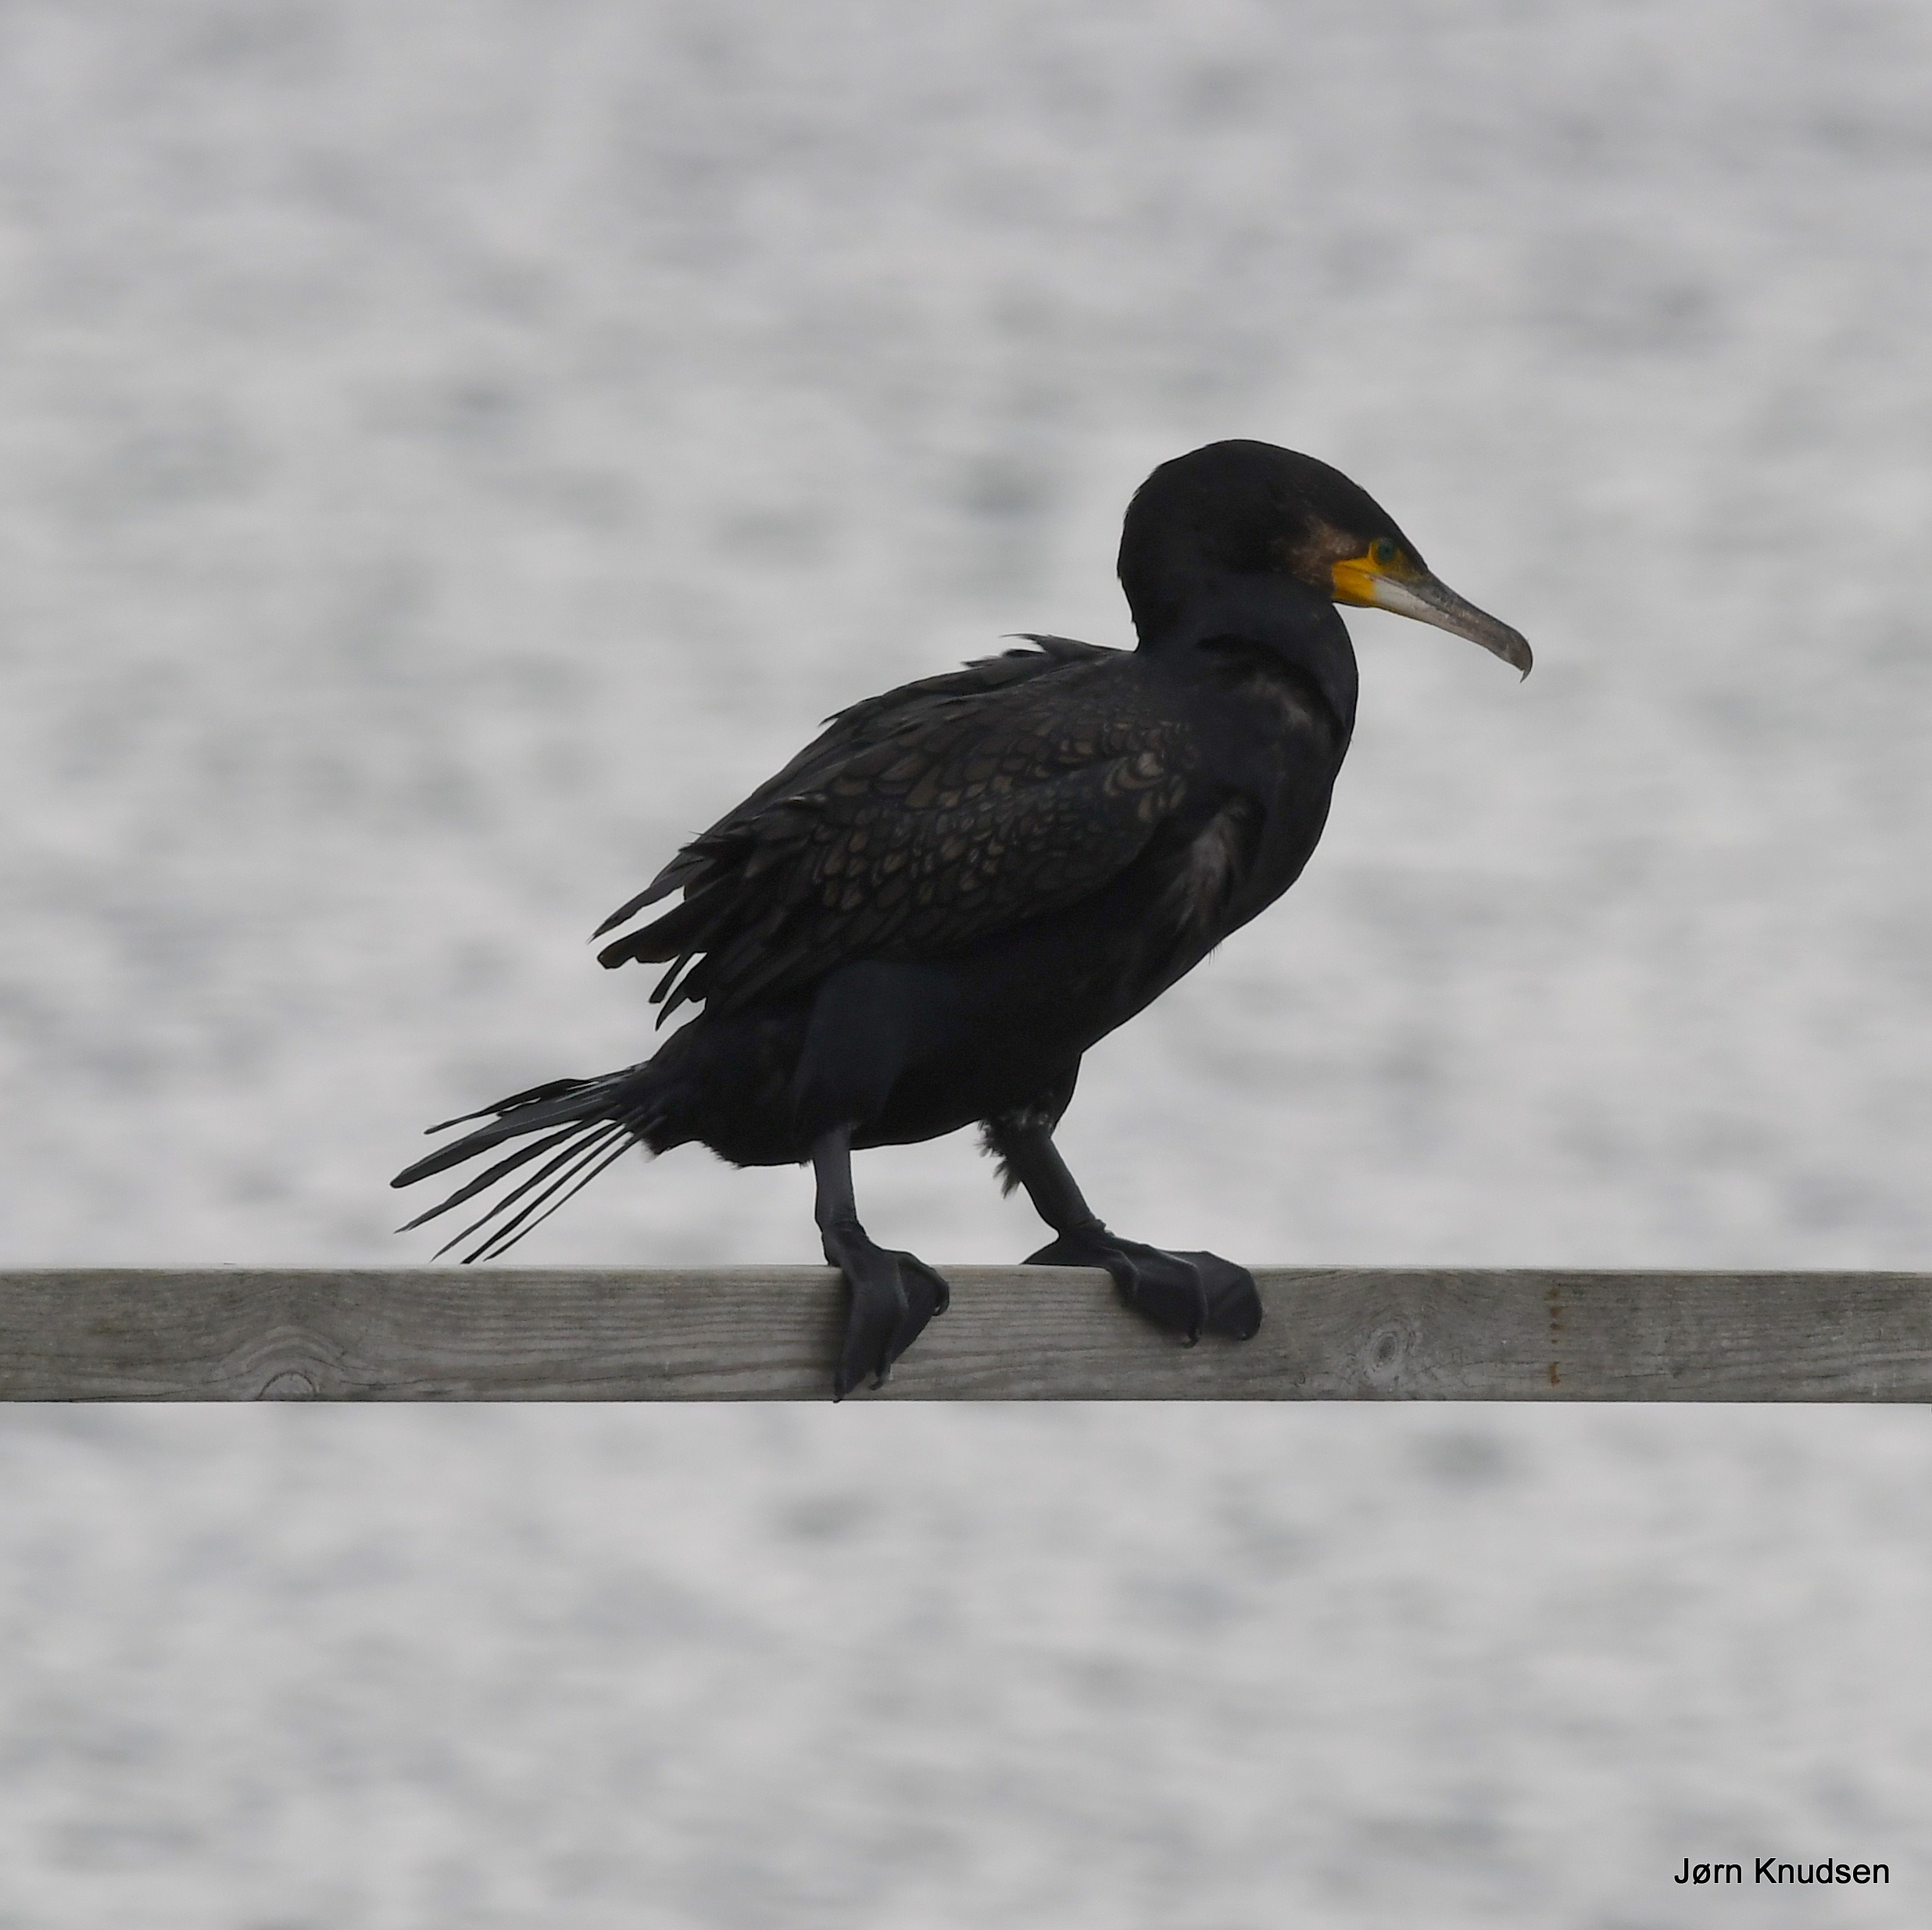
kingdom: Animalia
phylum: Chordata
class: Aves
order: Suliformes
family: Phalacrocoracidae
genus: Phalacrocorax
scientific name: Phalacrocorax carbo
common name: Skarv
